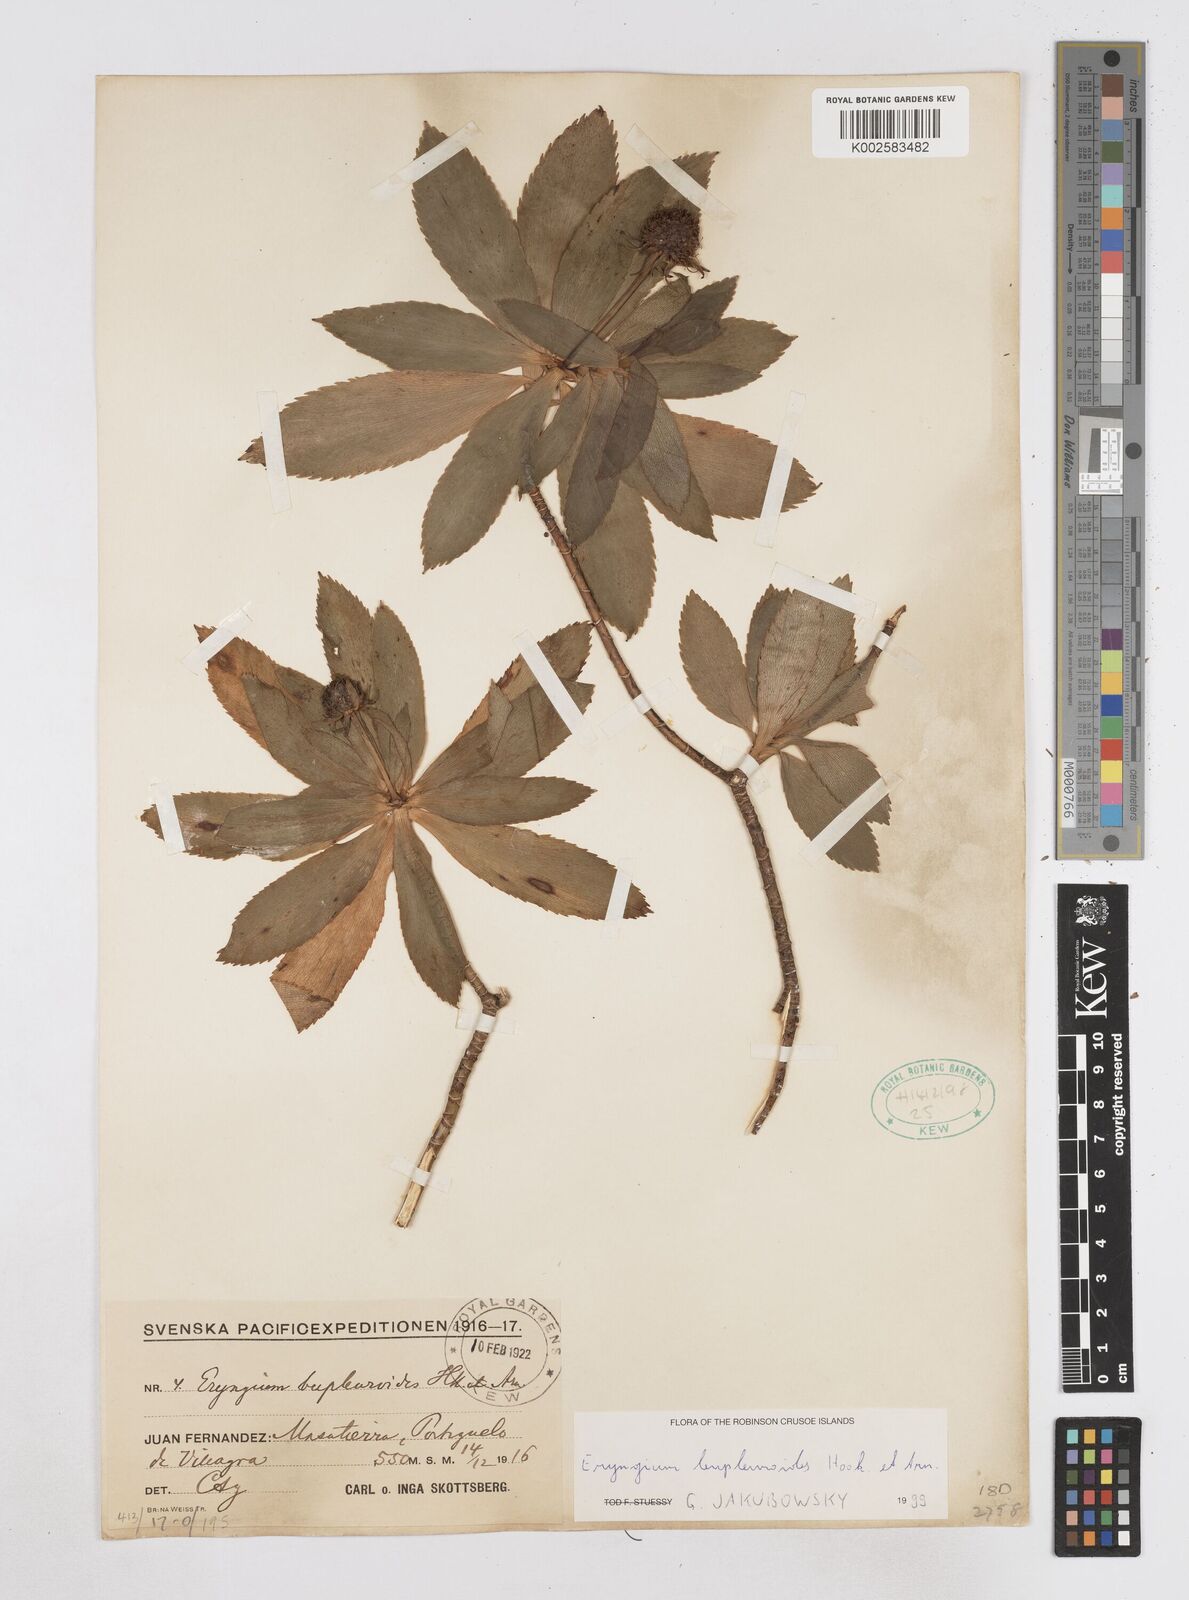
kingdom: Plantae
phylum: Tracheophyta
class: Magnoliopsida
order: Apiales
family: Apiaceae
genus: Eryngium
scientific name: Eryngium bupleuroides
